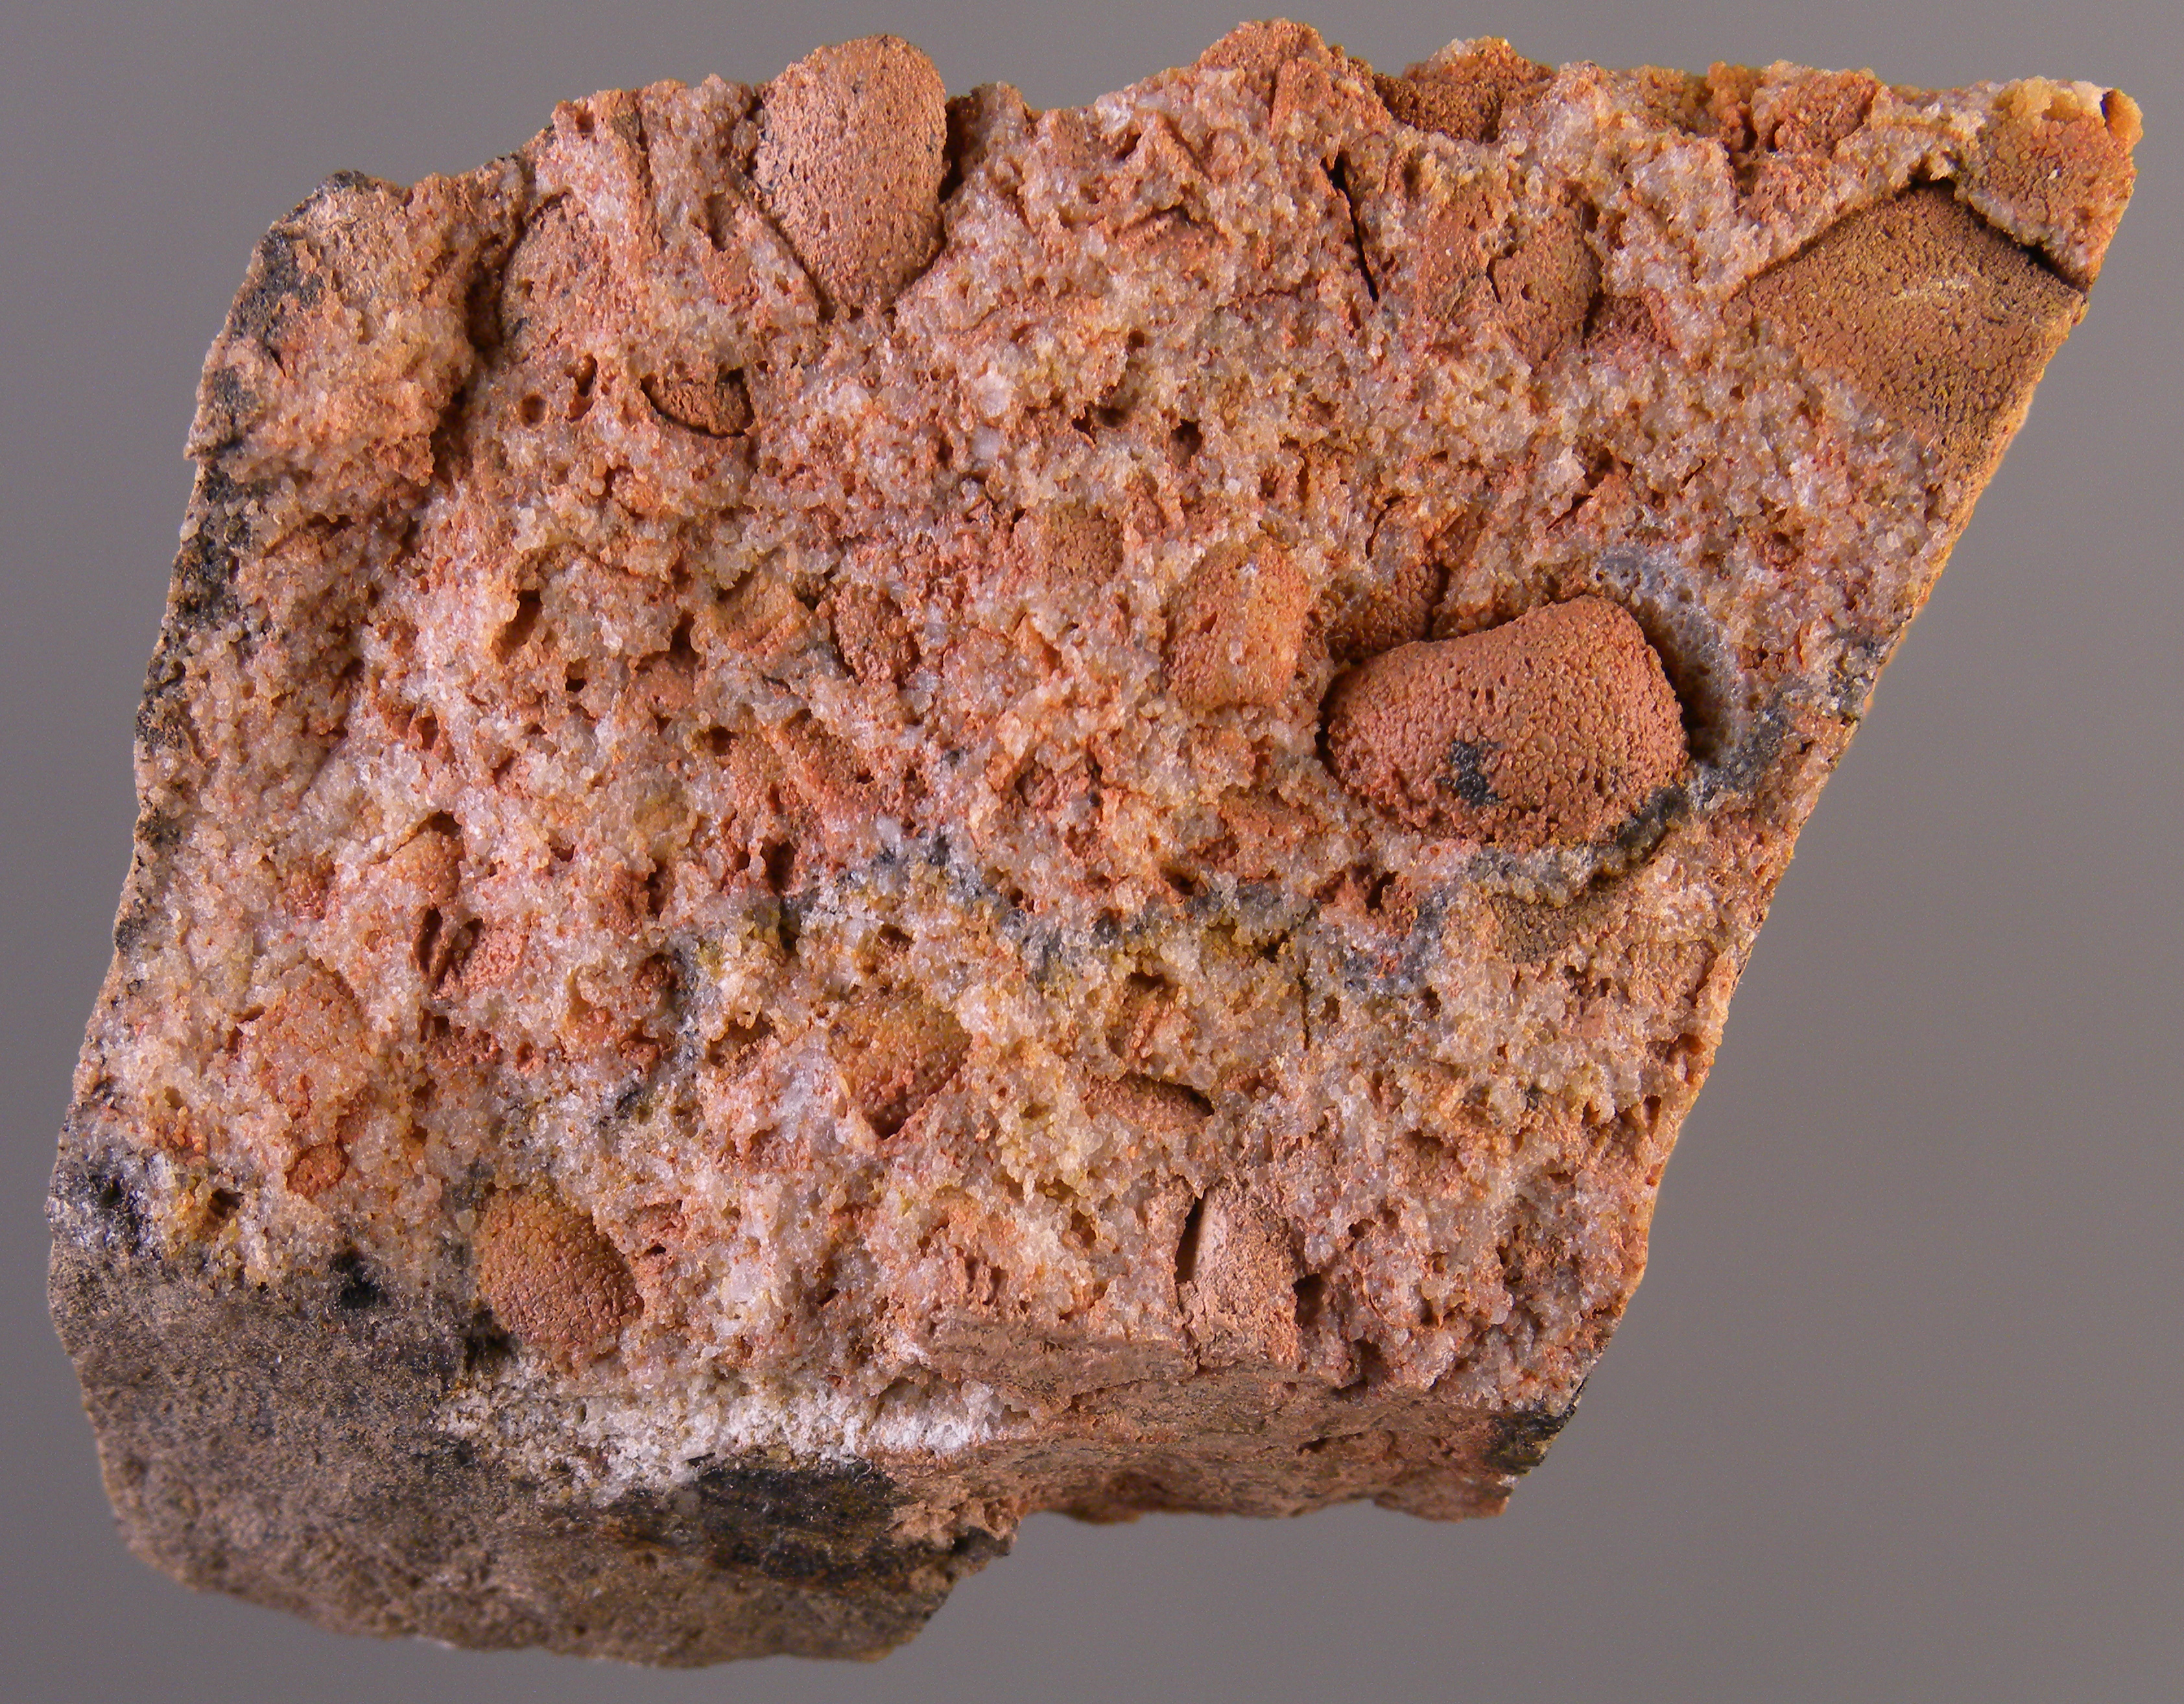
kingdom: Animalia
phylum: Mollusca
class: Bivalvia
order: Nuculida
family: Nuculidae
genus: Nuculoidea
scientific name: Nuculoidea
